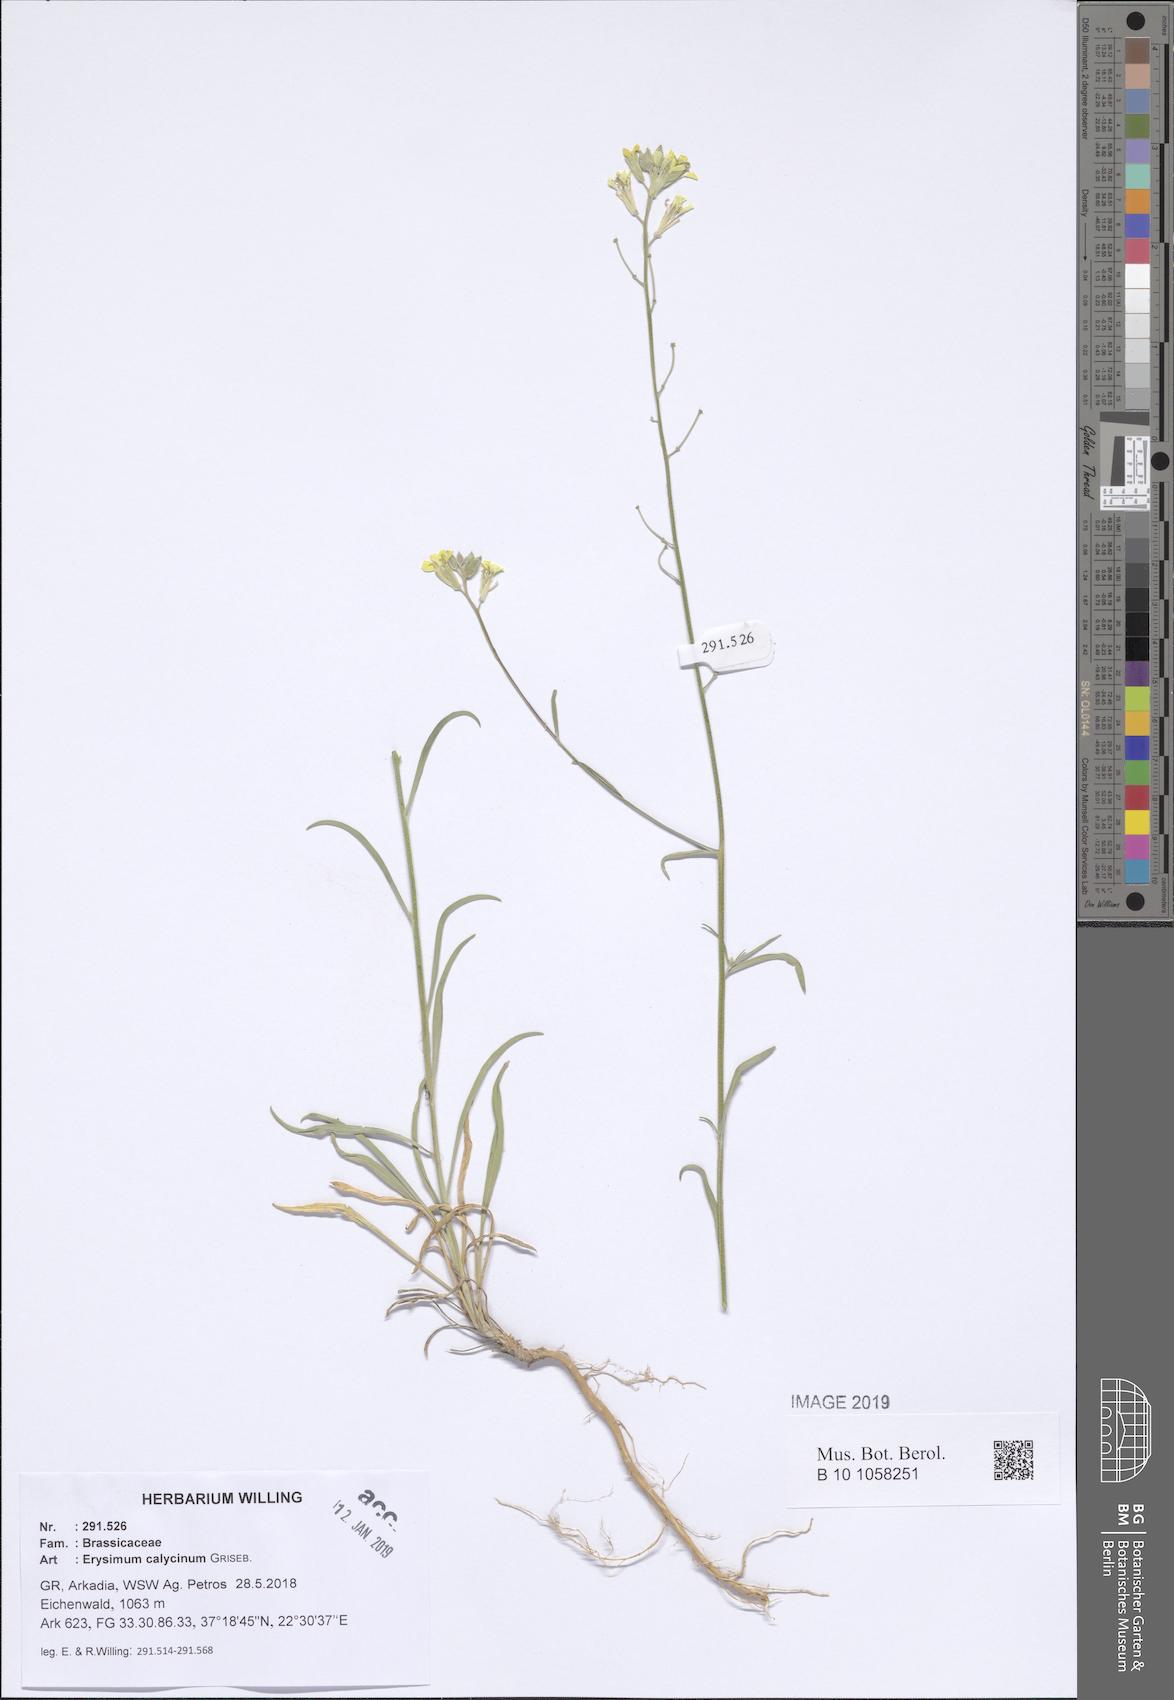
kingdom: Plantae
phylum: Tracheophyta
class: Magnoliopsida
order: Brassicales
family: Brassicaceae
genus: Erysimum
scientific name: Erysimum calycinum
